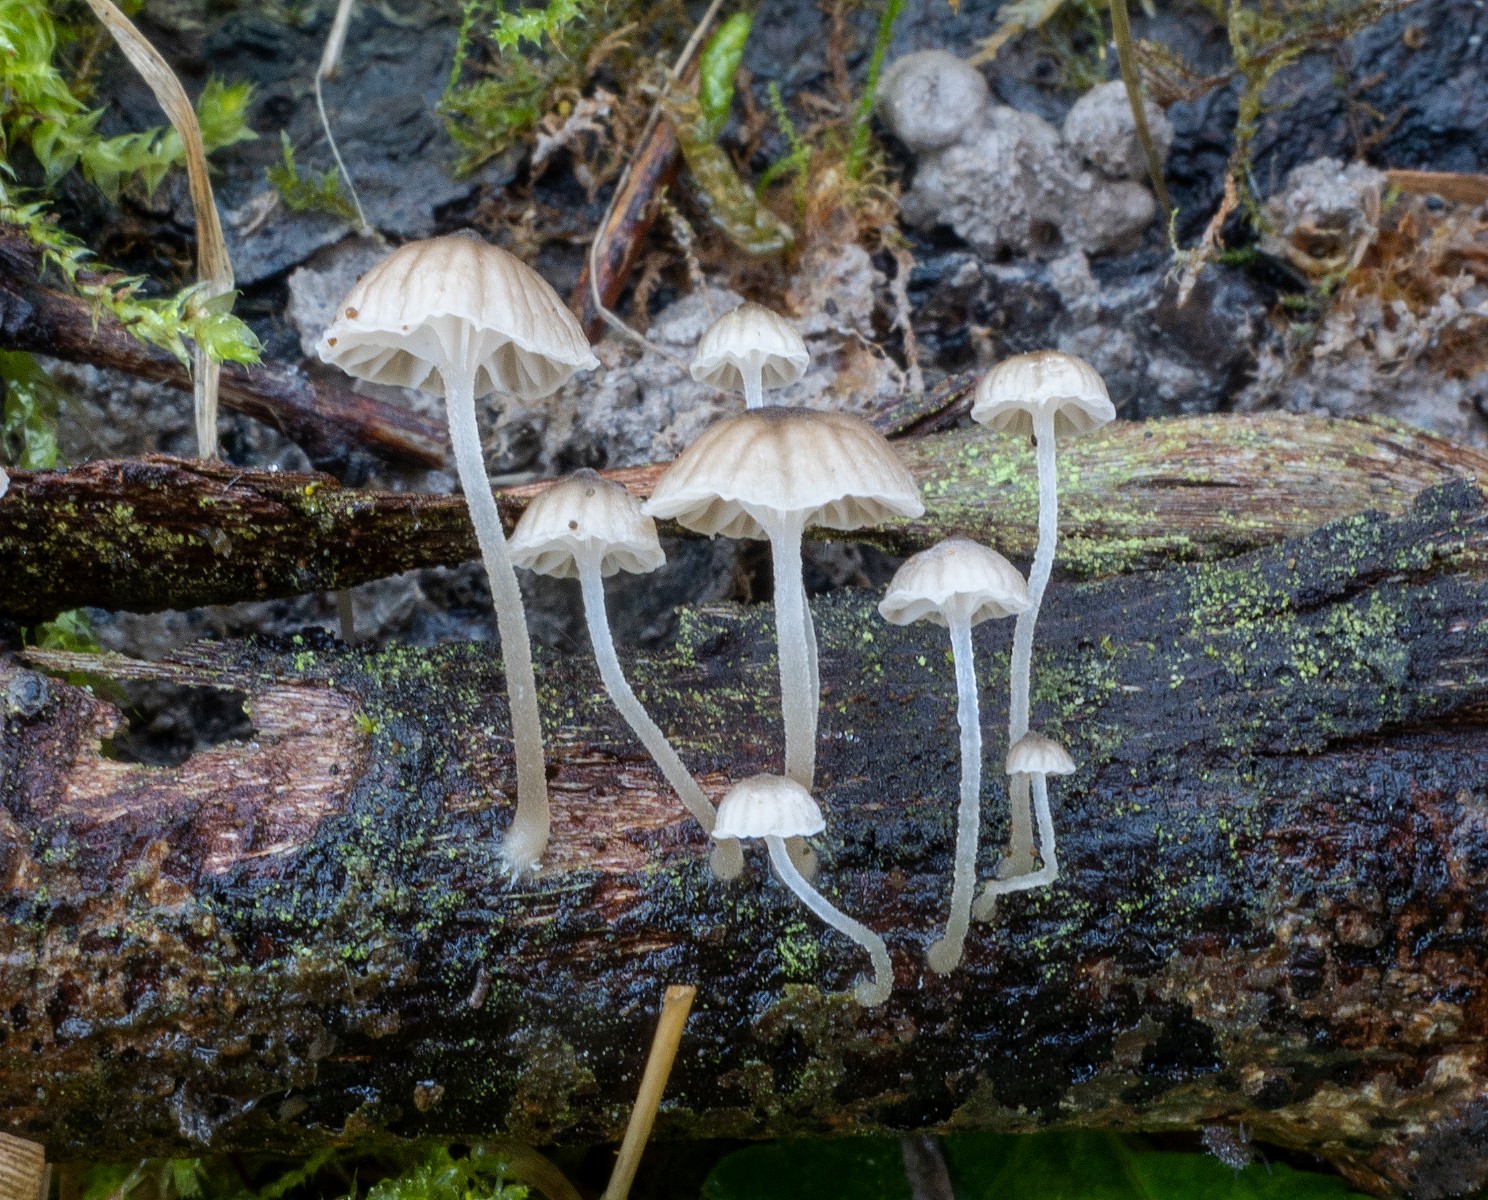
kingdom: Fungi
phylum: Basidiomycota
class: Agaricomycetes
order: Agaricales
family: Porotheleaceae
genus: Phloeomana
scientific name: Phloeomana speirea
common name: kvist-huesvamp
